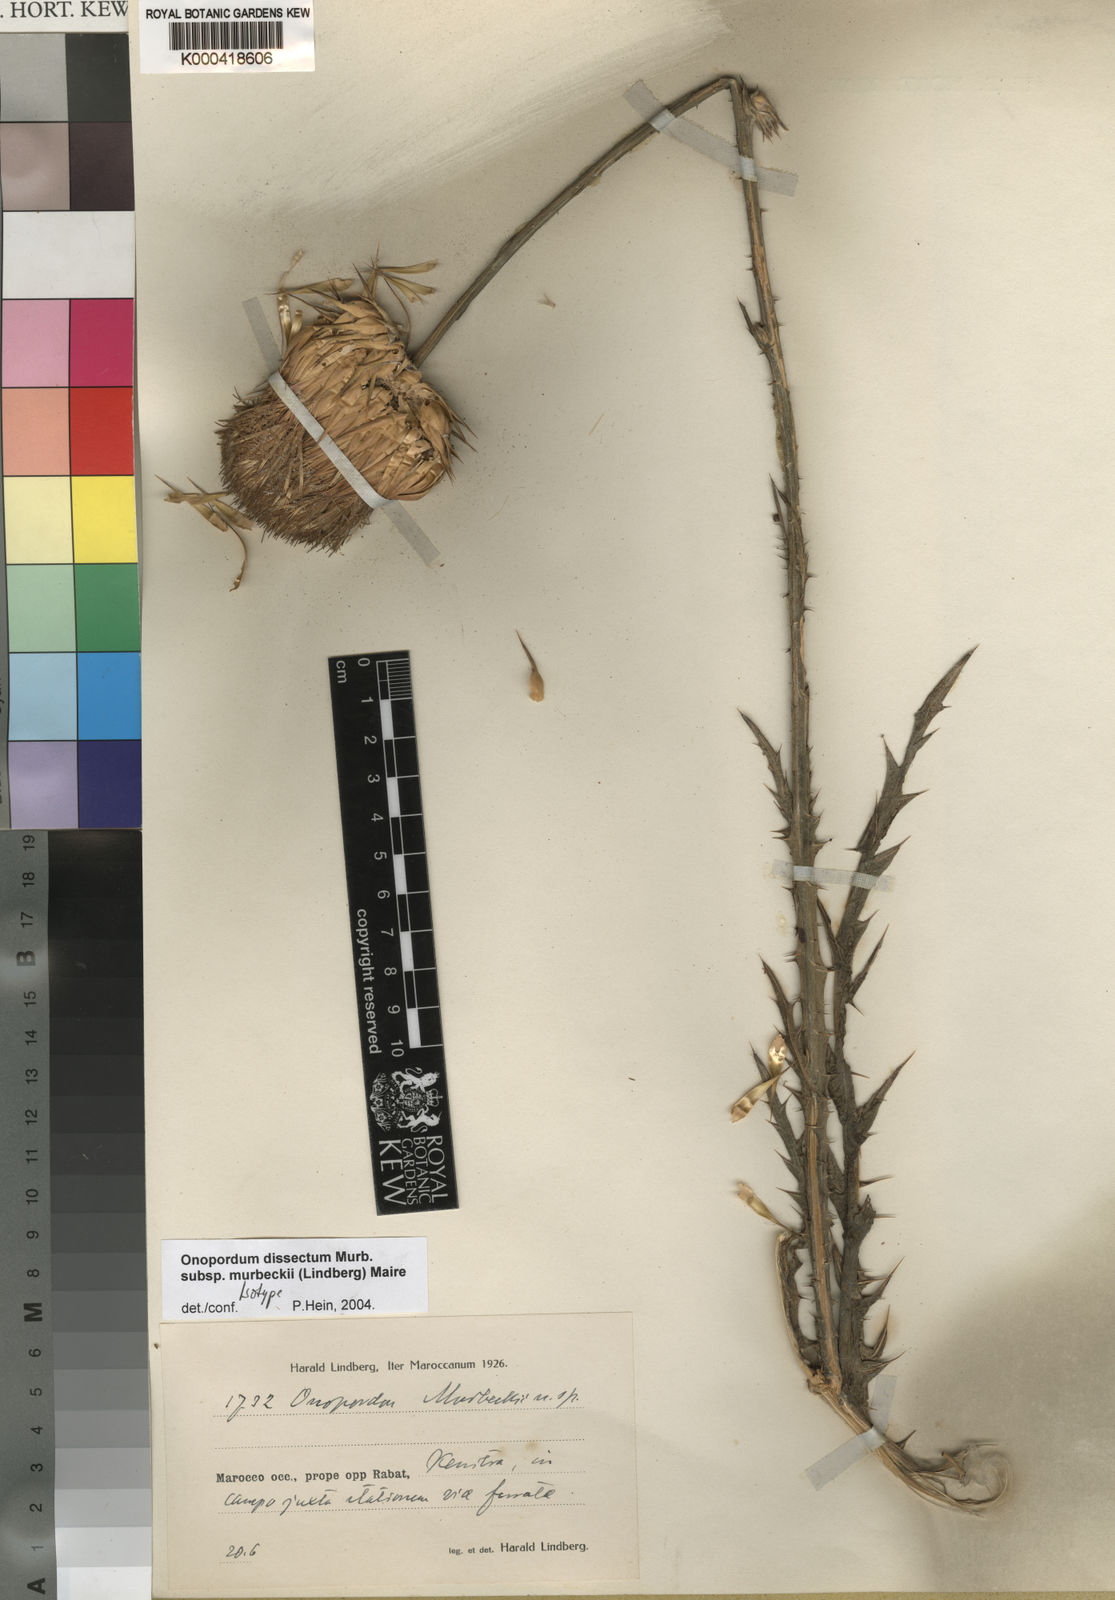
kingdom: Plantae
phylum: Tracheophyta
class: Magnoliopsida
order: Asterales
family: Asteraceae
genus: Onopordum
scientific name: Onopordum dissectum
